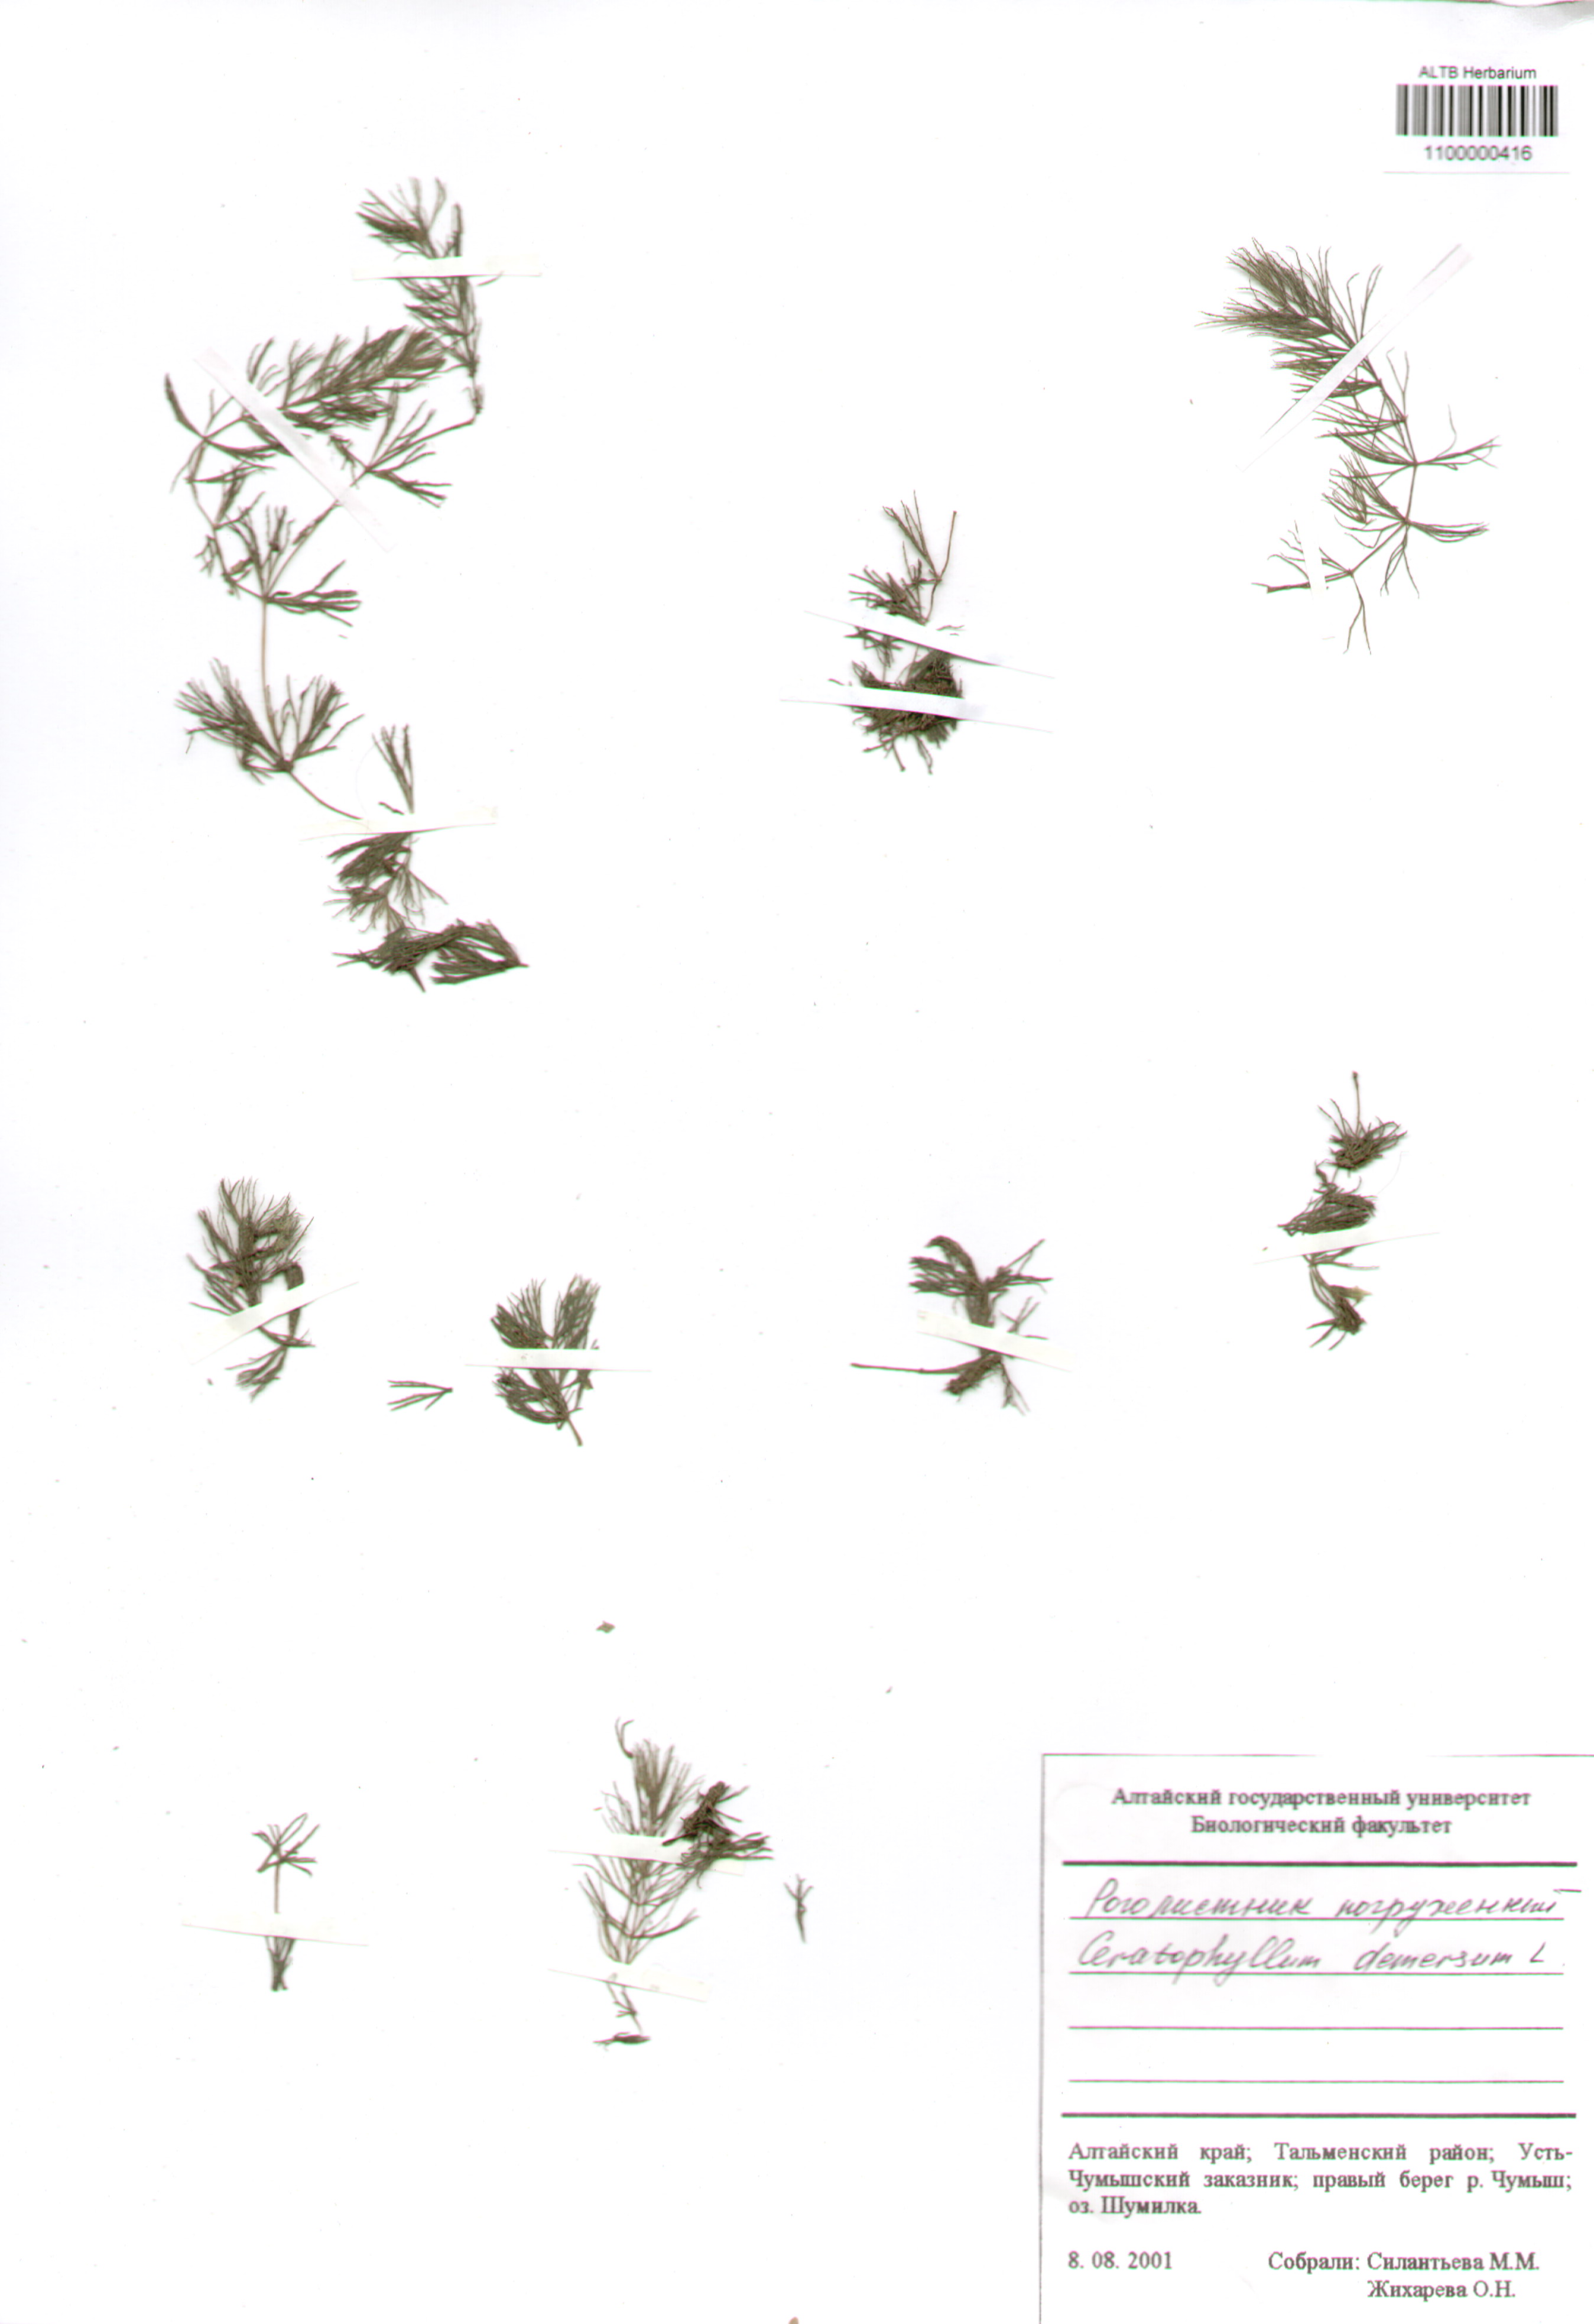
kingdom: Plantae
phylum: Tracheophyta
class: Magnoliopsida
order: Ceratophyllales
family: Ceratophyllaceae
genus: Ceratophyllum
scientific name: Ceratophyllum demersum
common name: Rigid hornwort
